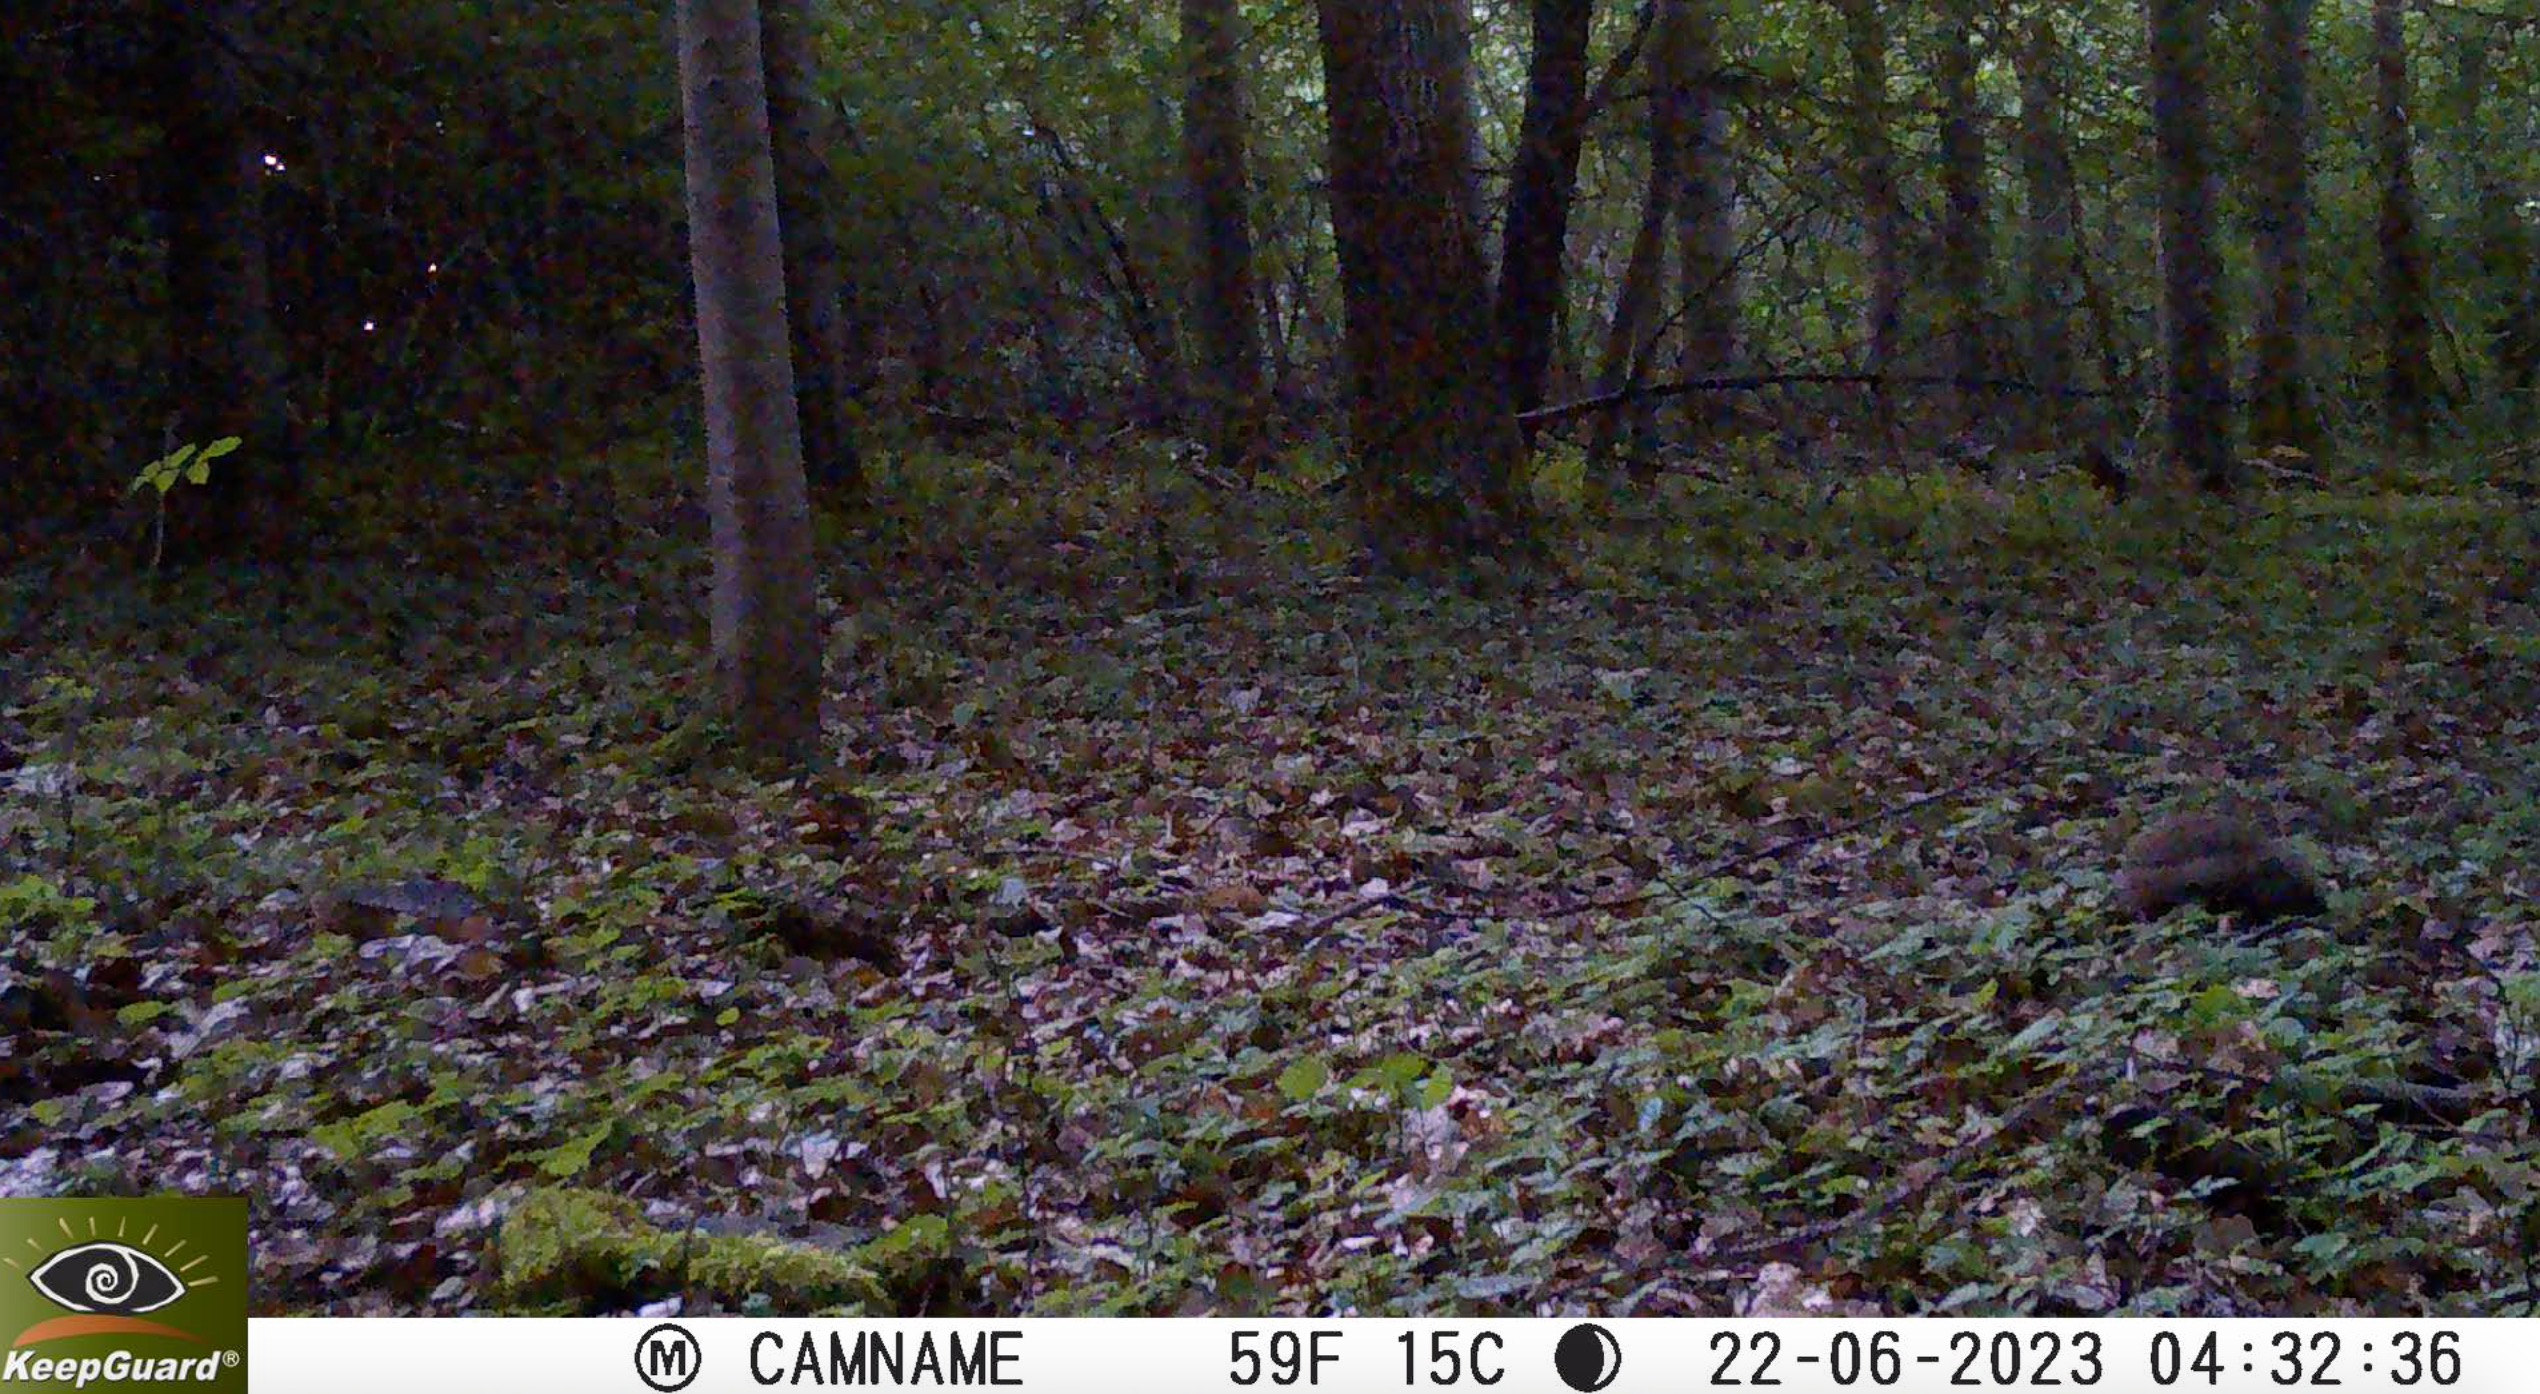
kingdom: Animalia
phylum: Chordata
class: Mammalia
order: Erinaceomorpha
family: Erinaceidae
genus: Erinaceus
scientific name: Erinaceus europaeus
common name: Pindsvin
